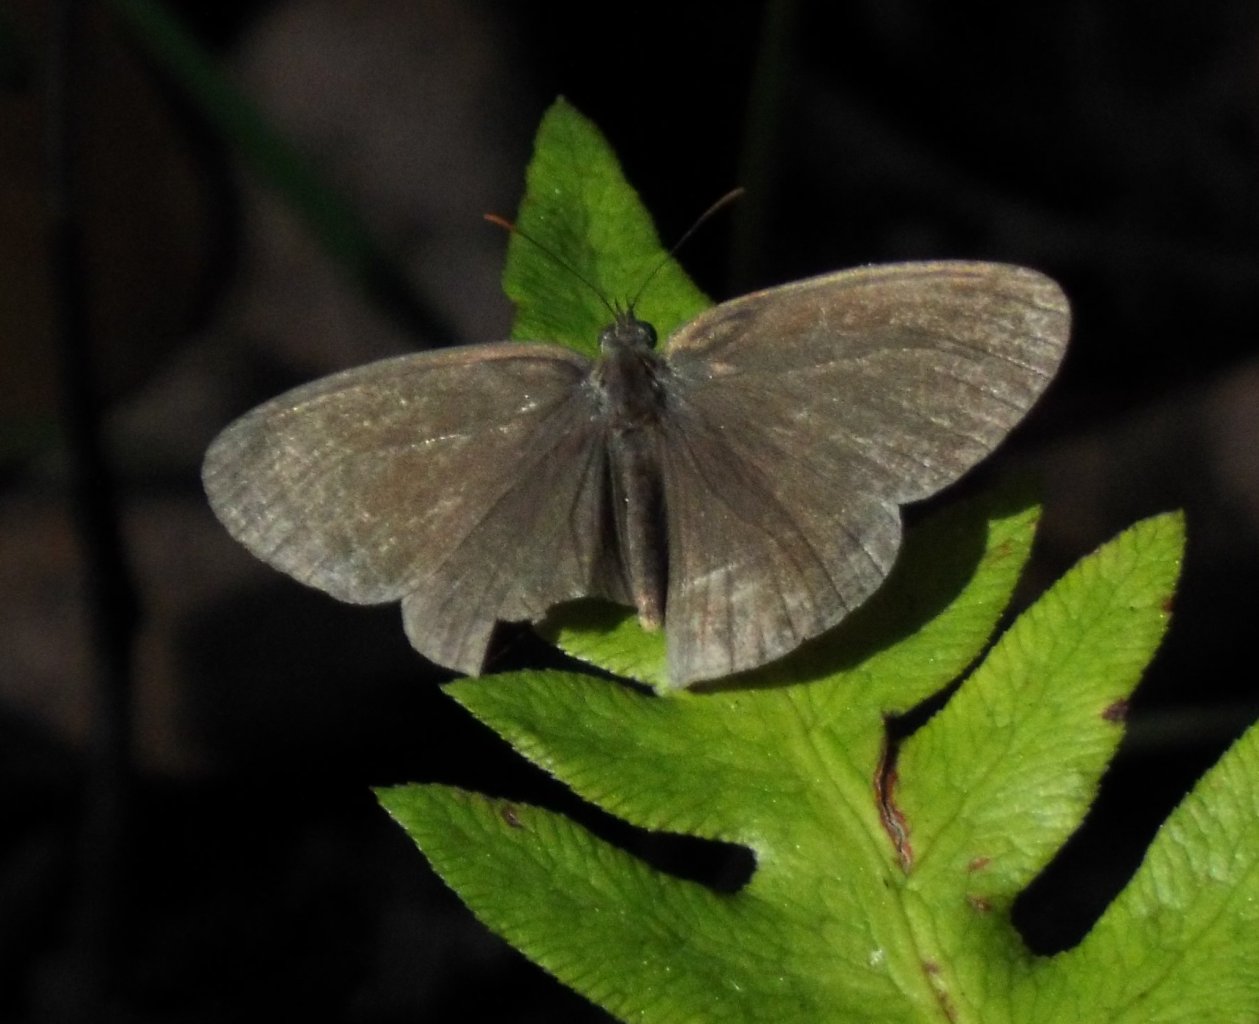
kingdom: Animalia
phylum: Arthropoda
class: Insecta
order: Lepidoptera
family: Nymphalidae
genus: Hermeuptychia
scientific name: Hermeuptychia intricata
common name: Intricate Satyr
